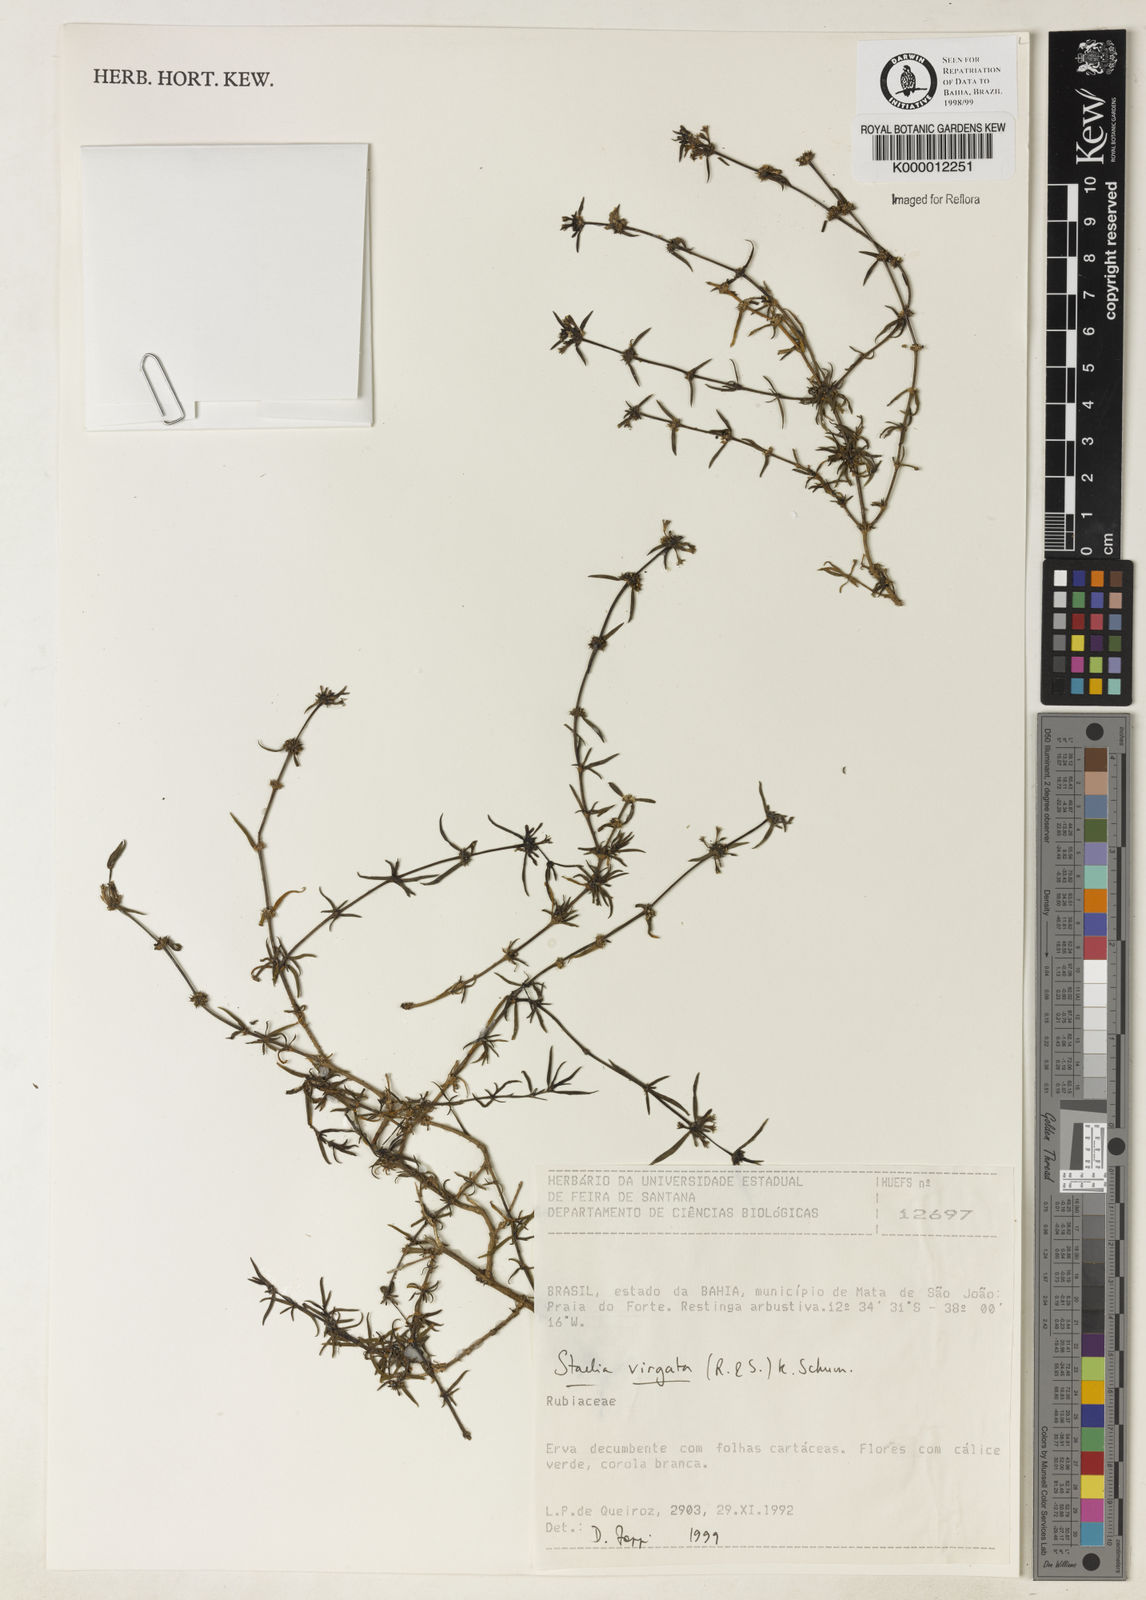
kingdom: Plantae
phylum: Tracheophyta
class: Magnoliopsida
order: Gentianales
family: Rubiaceae
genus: Staelia
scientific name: Staelia virgata
